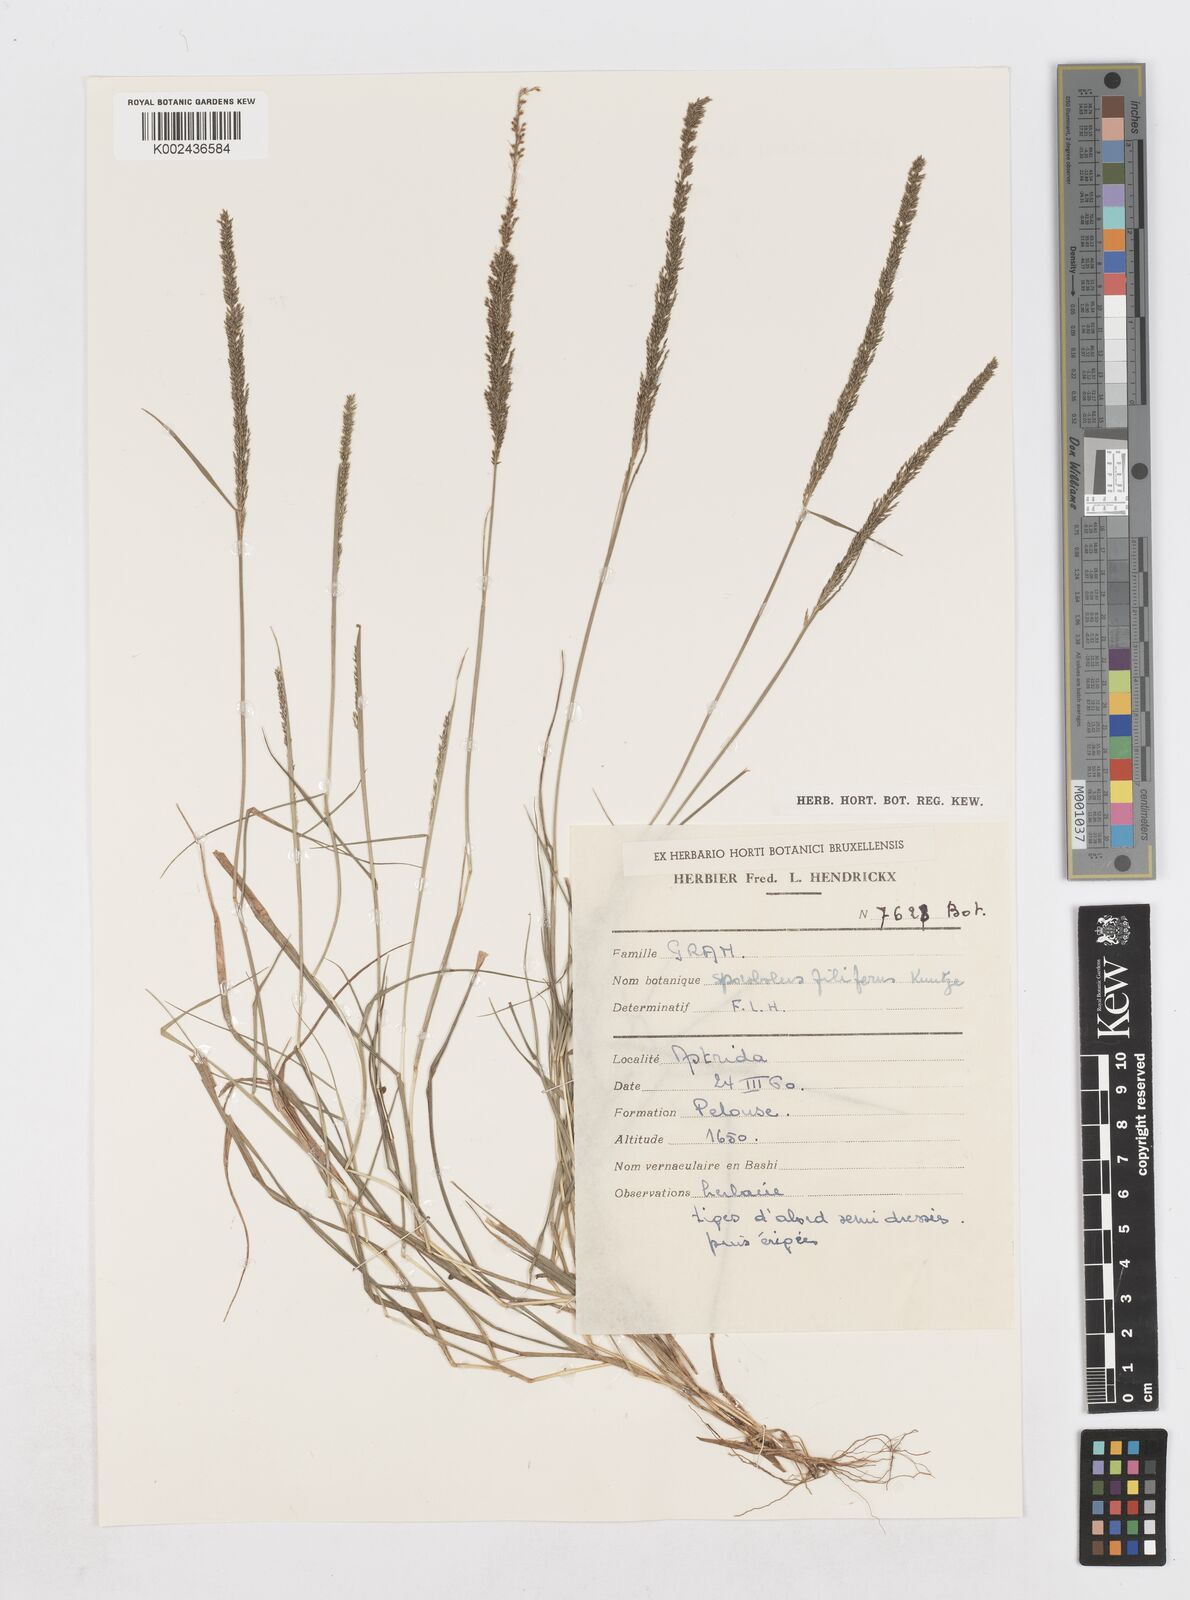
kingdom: Plantae
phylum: Tracheophyta
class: Liliopsida
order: Poales
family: Poaceae
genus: Sporobolus
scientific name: Sporobolus pilifer
